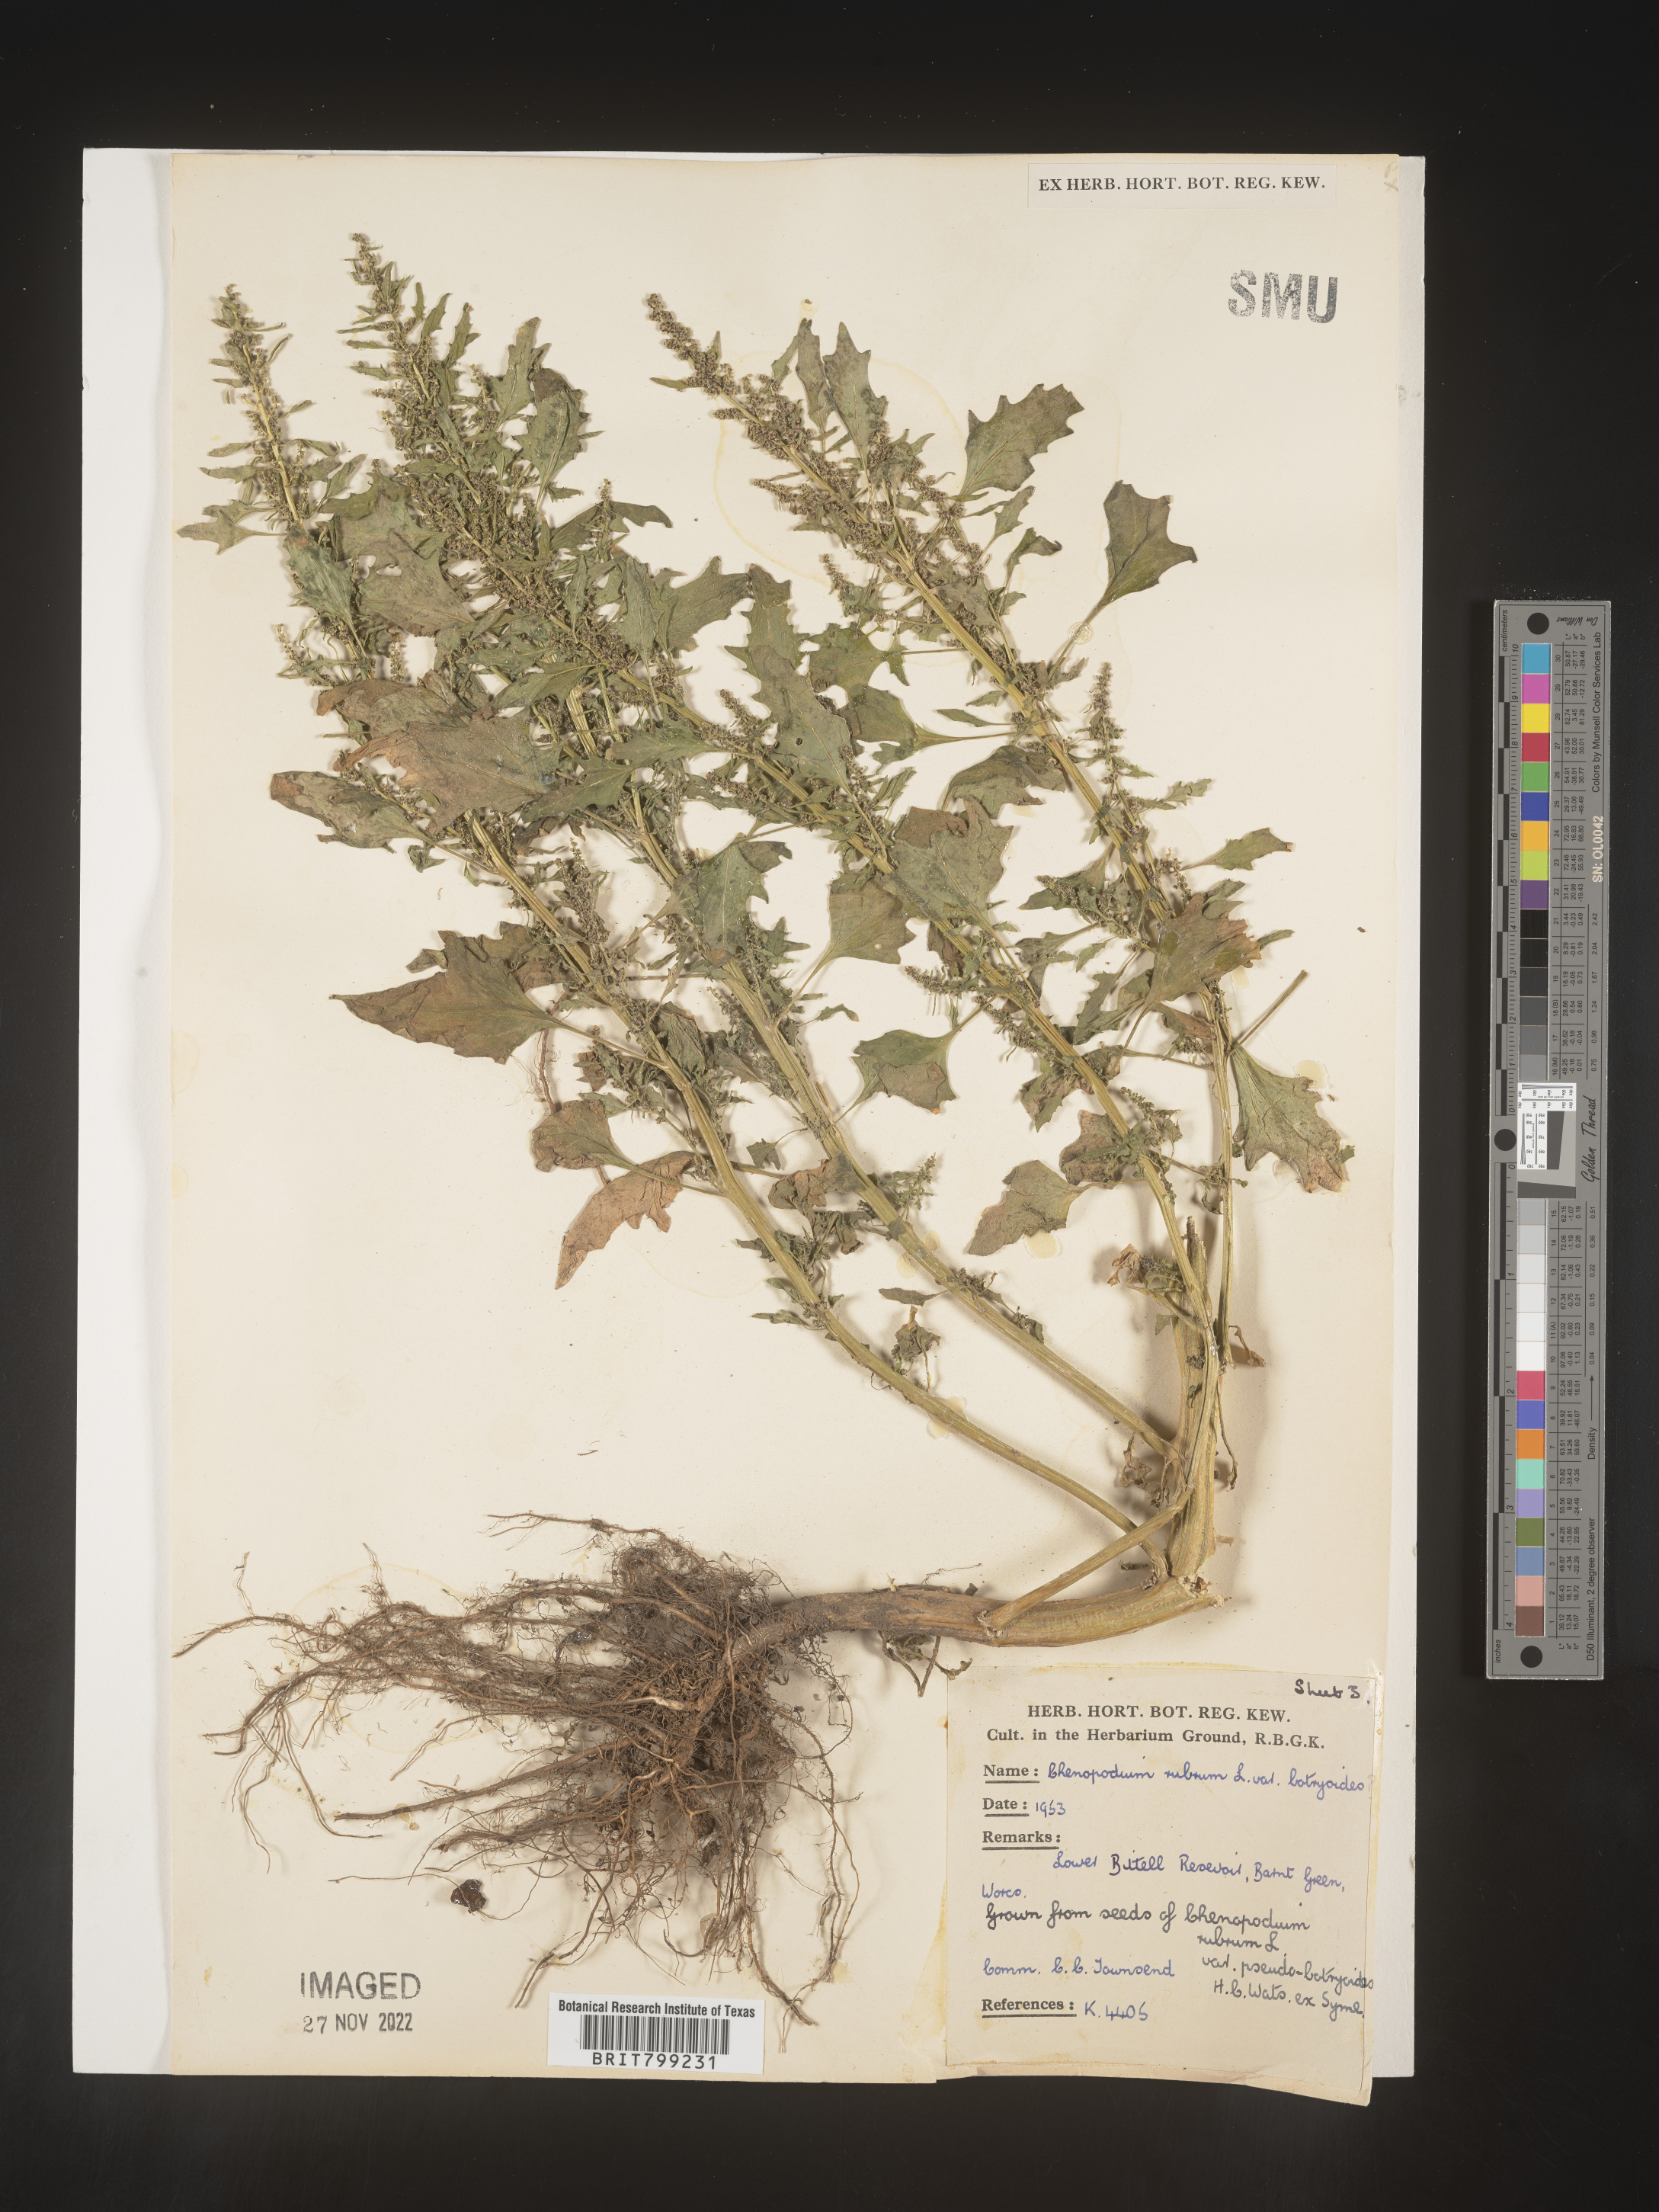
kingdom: Plantae
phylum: Tracheophyta
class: Magnoliopsida
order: Caryophyllales
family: Amaranthaceae
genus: Oxybasis
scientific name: Oxybasis rubra
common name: Red goosefoot
